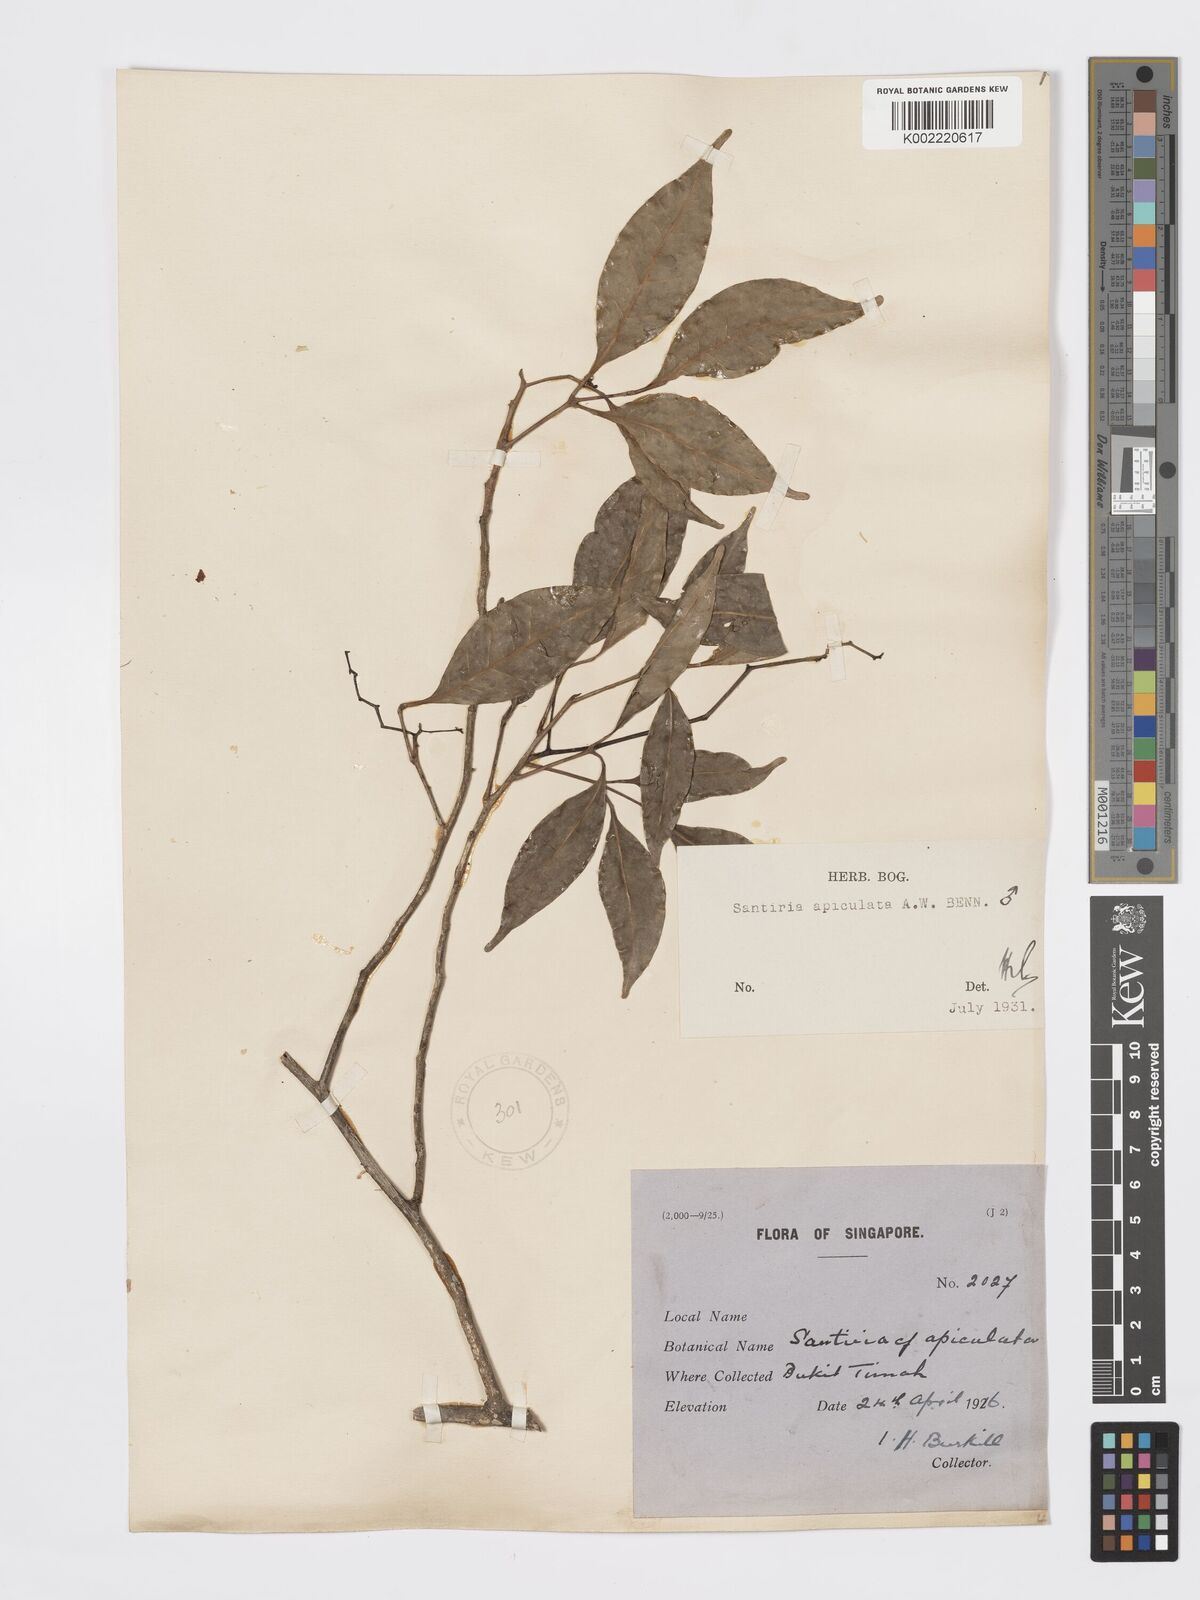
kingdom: Plantae
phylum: Tracheophyta
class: Magnoliopsida
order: Sapindales
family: Burseraceae
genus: Santiria
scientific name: Santiria apiculata
